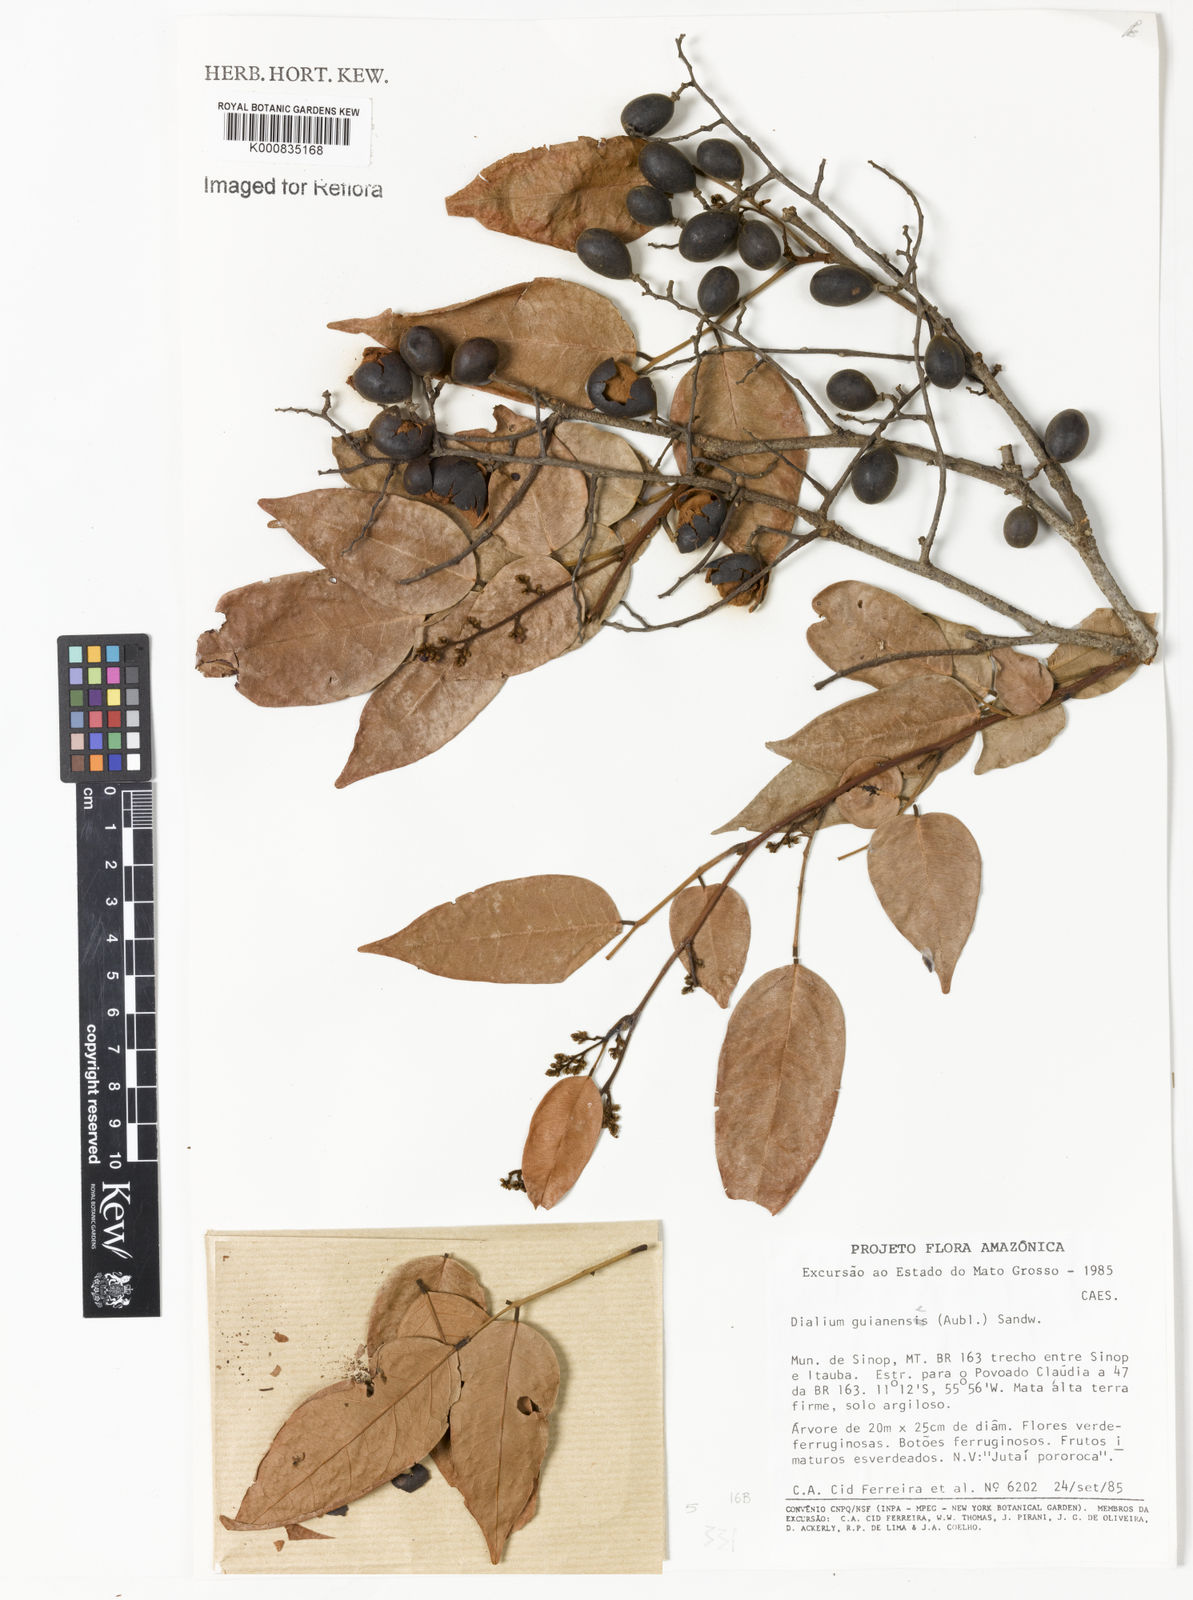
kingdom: Plantae
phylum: Tracheophyta
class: Magnoliopsida
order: Fabales
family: Fabaceae
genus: Dialium
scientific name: Dialium guianense
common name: Ironwood
